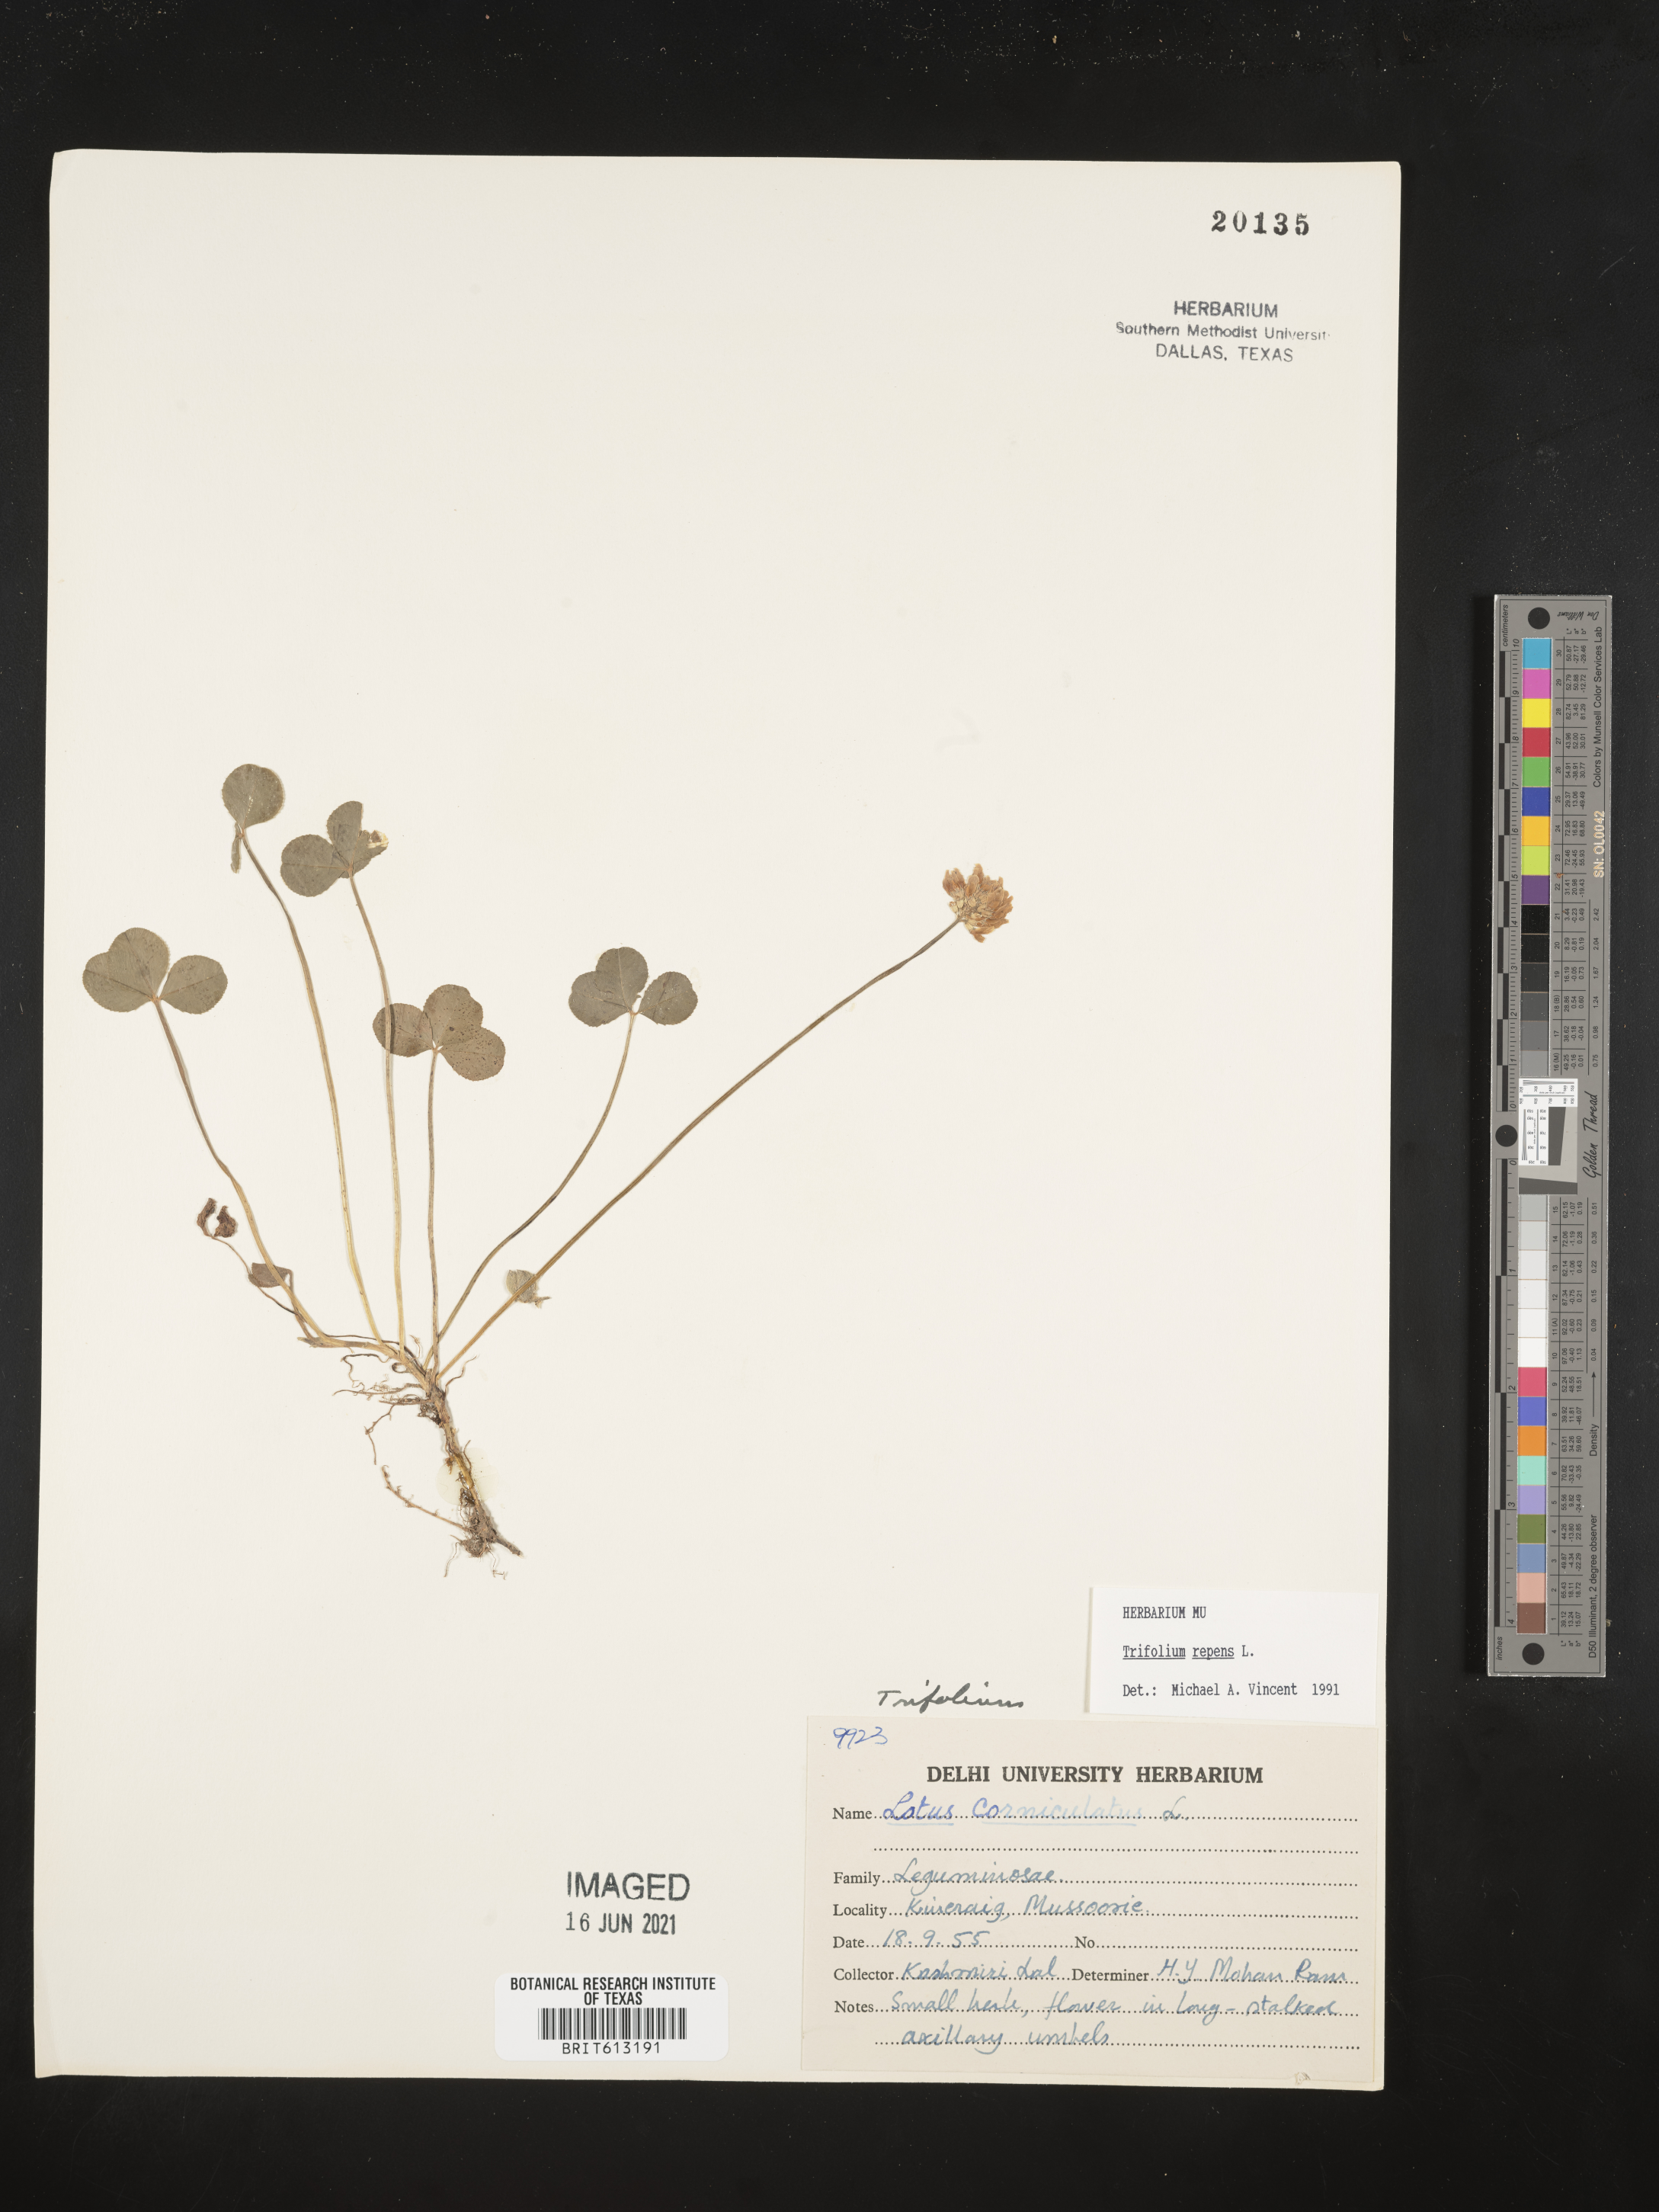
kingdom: Plantae
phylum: Tracheophyta
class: Magnoliopsida
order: Fabales
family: Fabaceae
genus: Lotus
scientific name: Lotus corniculatus
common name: Common bird's-foot-trefoil
